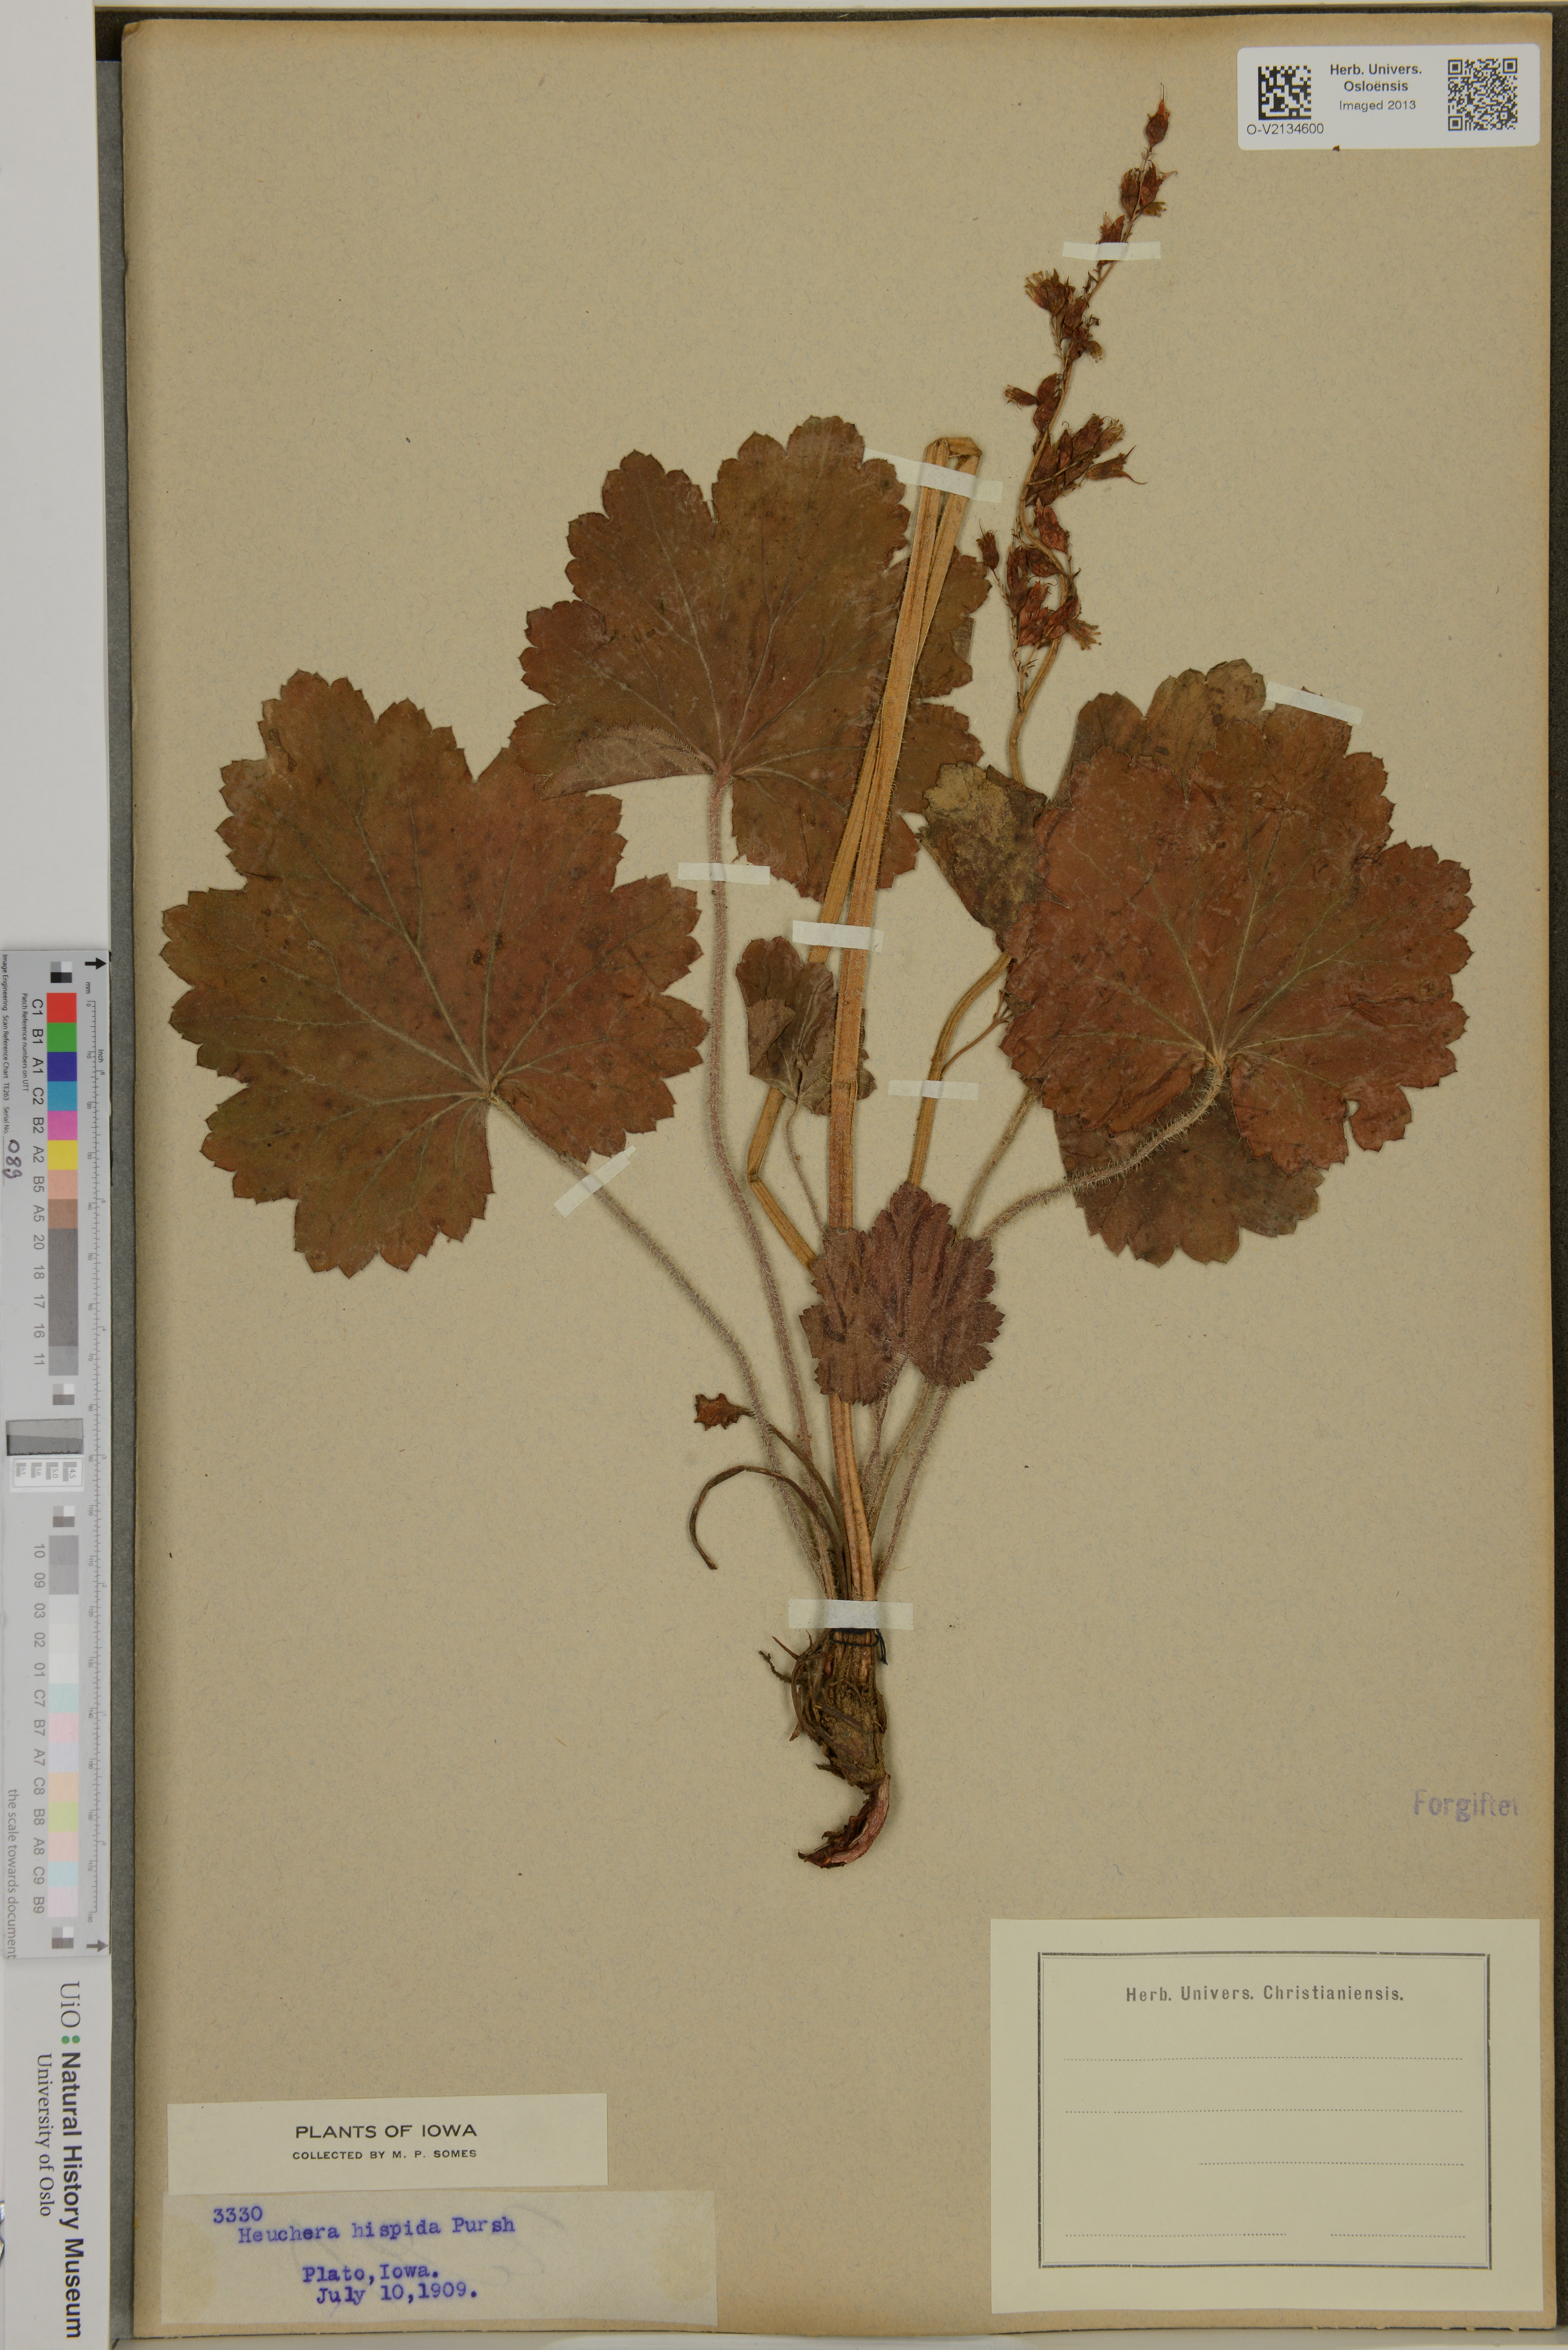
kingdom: Plantae
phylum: Tracheophyta
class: Magnoliopsida
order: Saxifragales
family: Saxifragaceae
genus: Heuchera
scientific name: Heuchera
